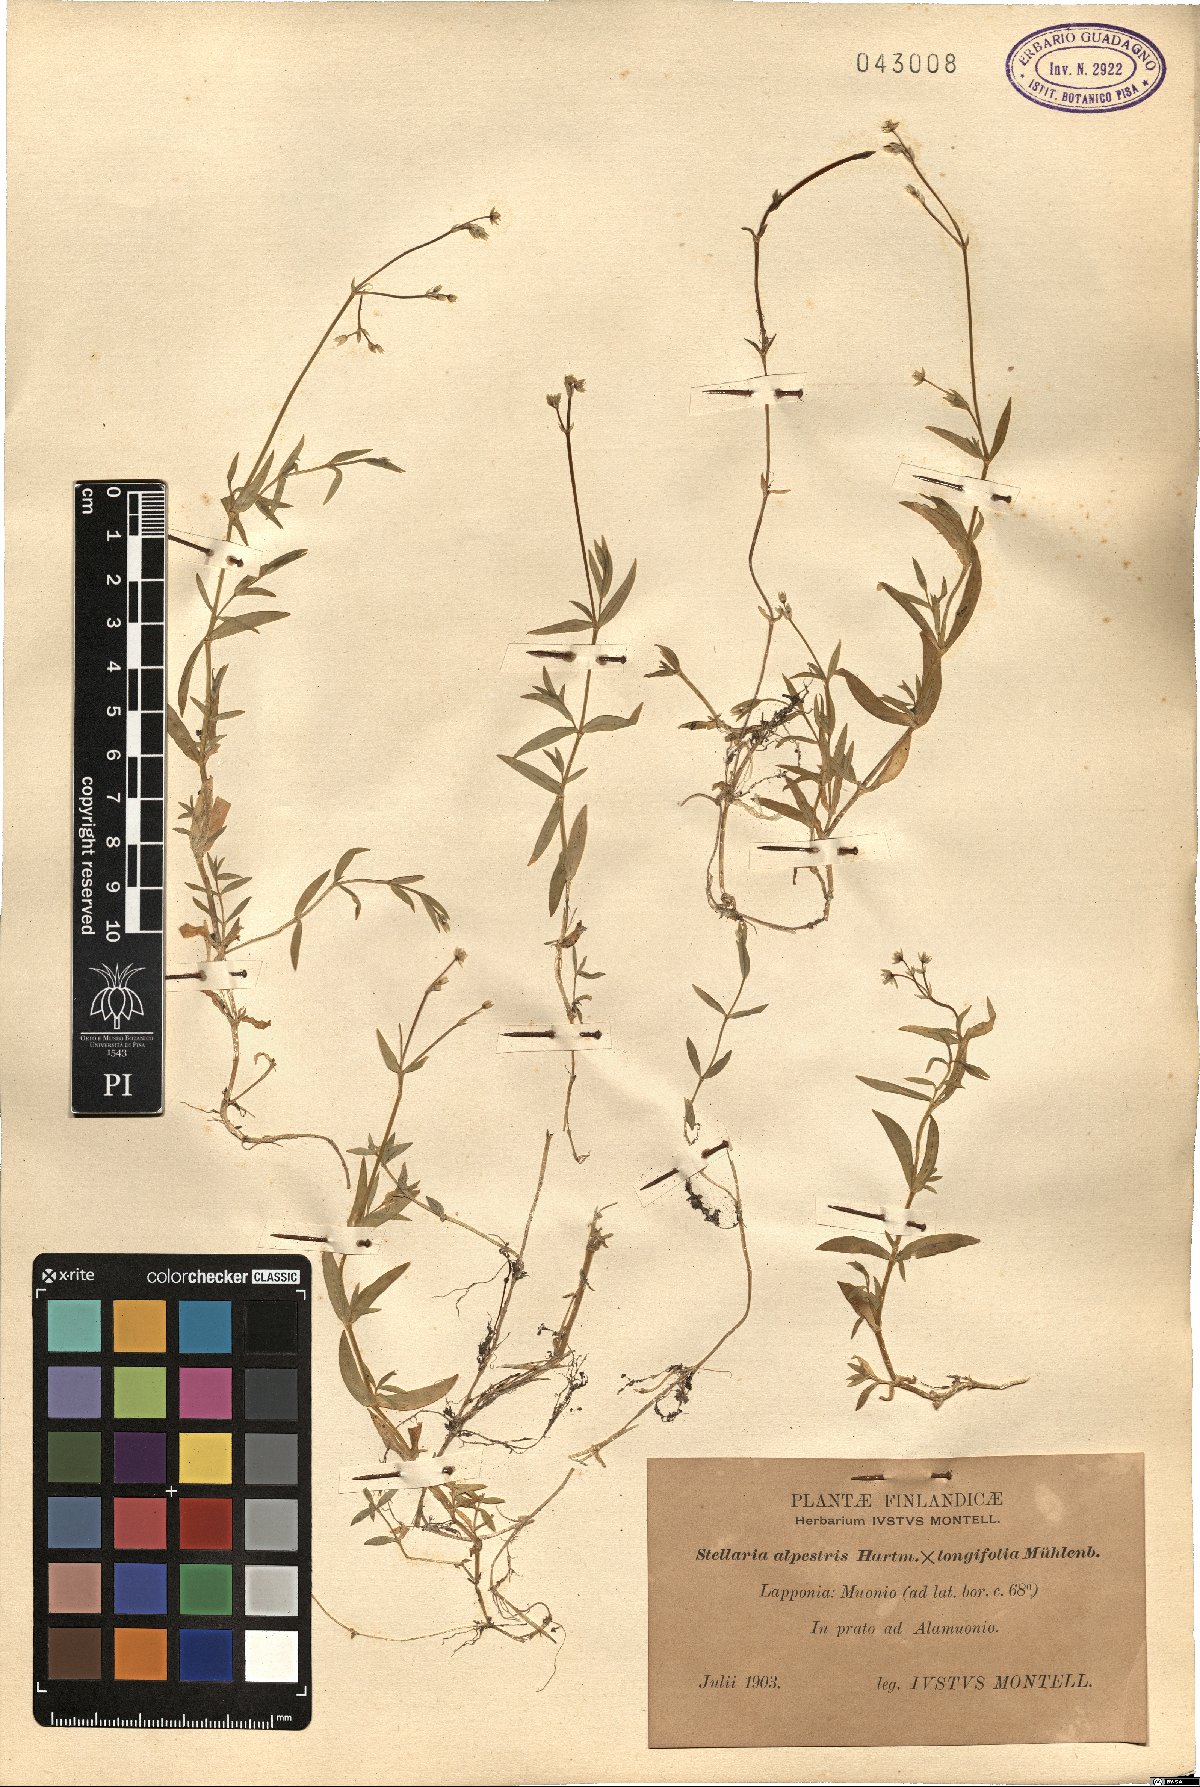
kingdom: Plantae
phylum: Tracheophyta
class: Magnoliopsida
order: Caryophyllales
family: Caryophyllaceae
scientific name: Caryophyllaceae
